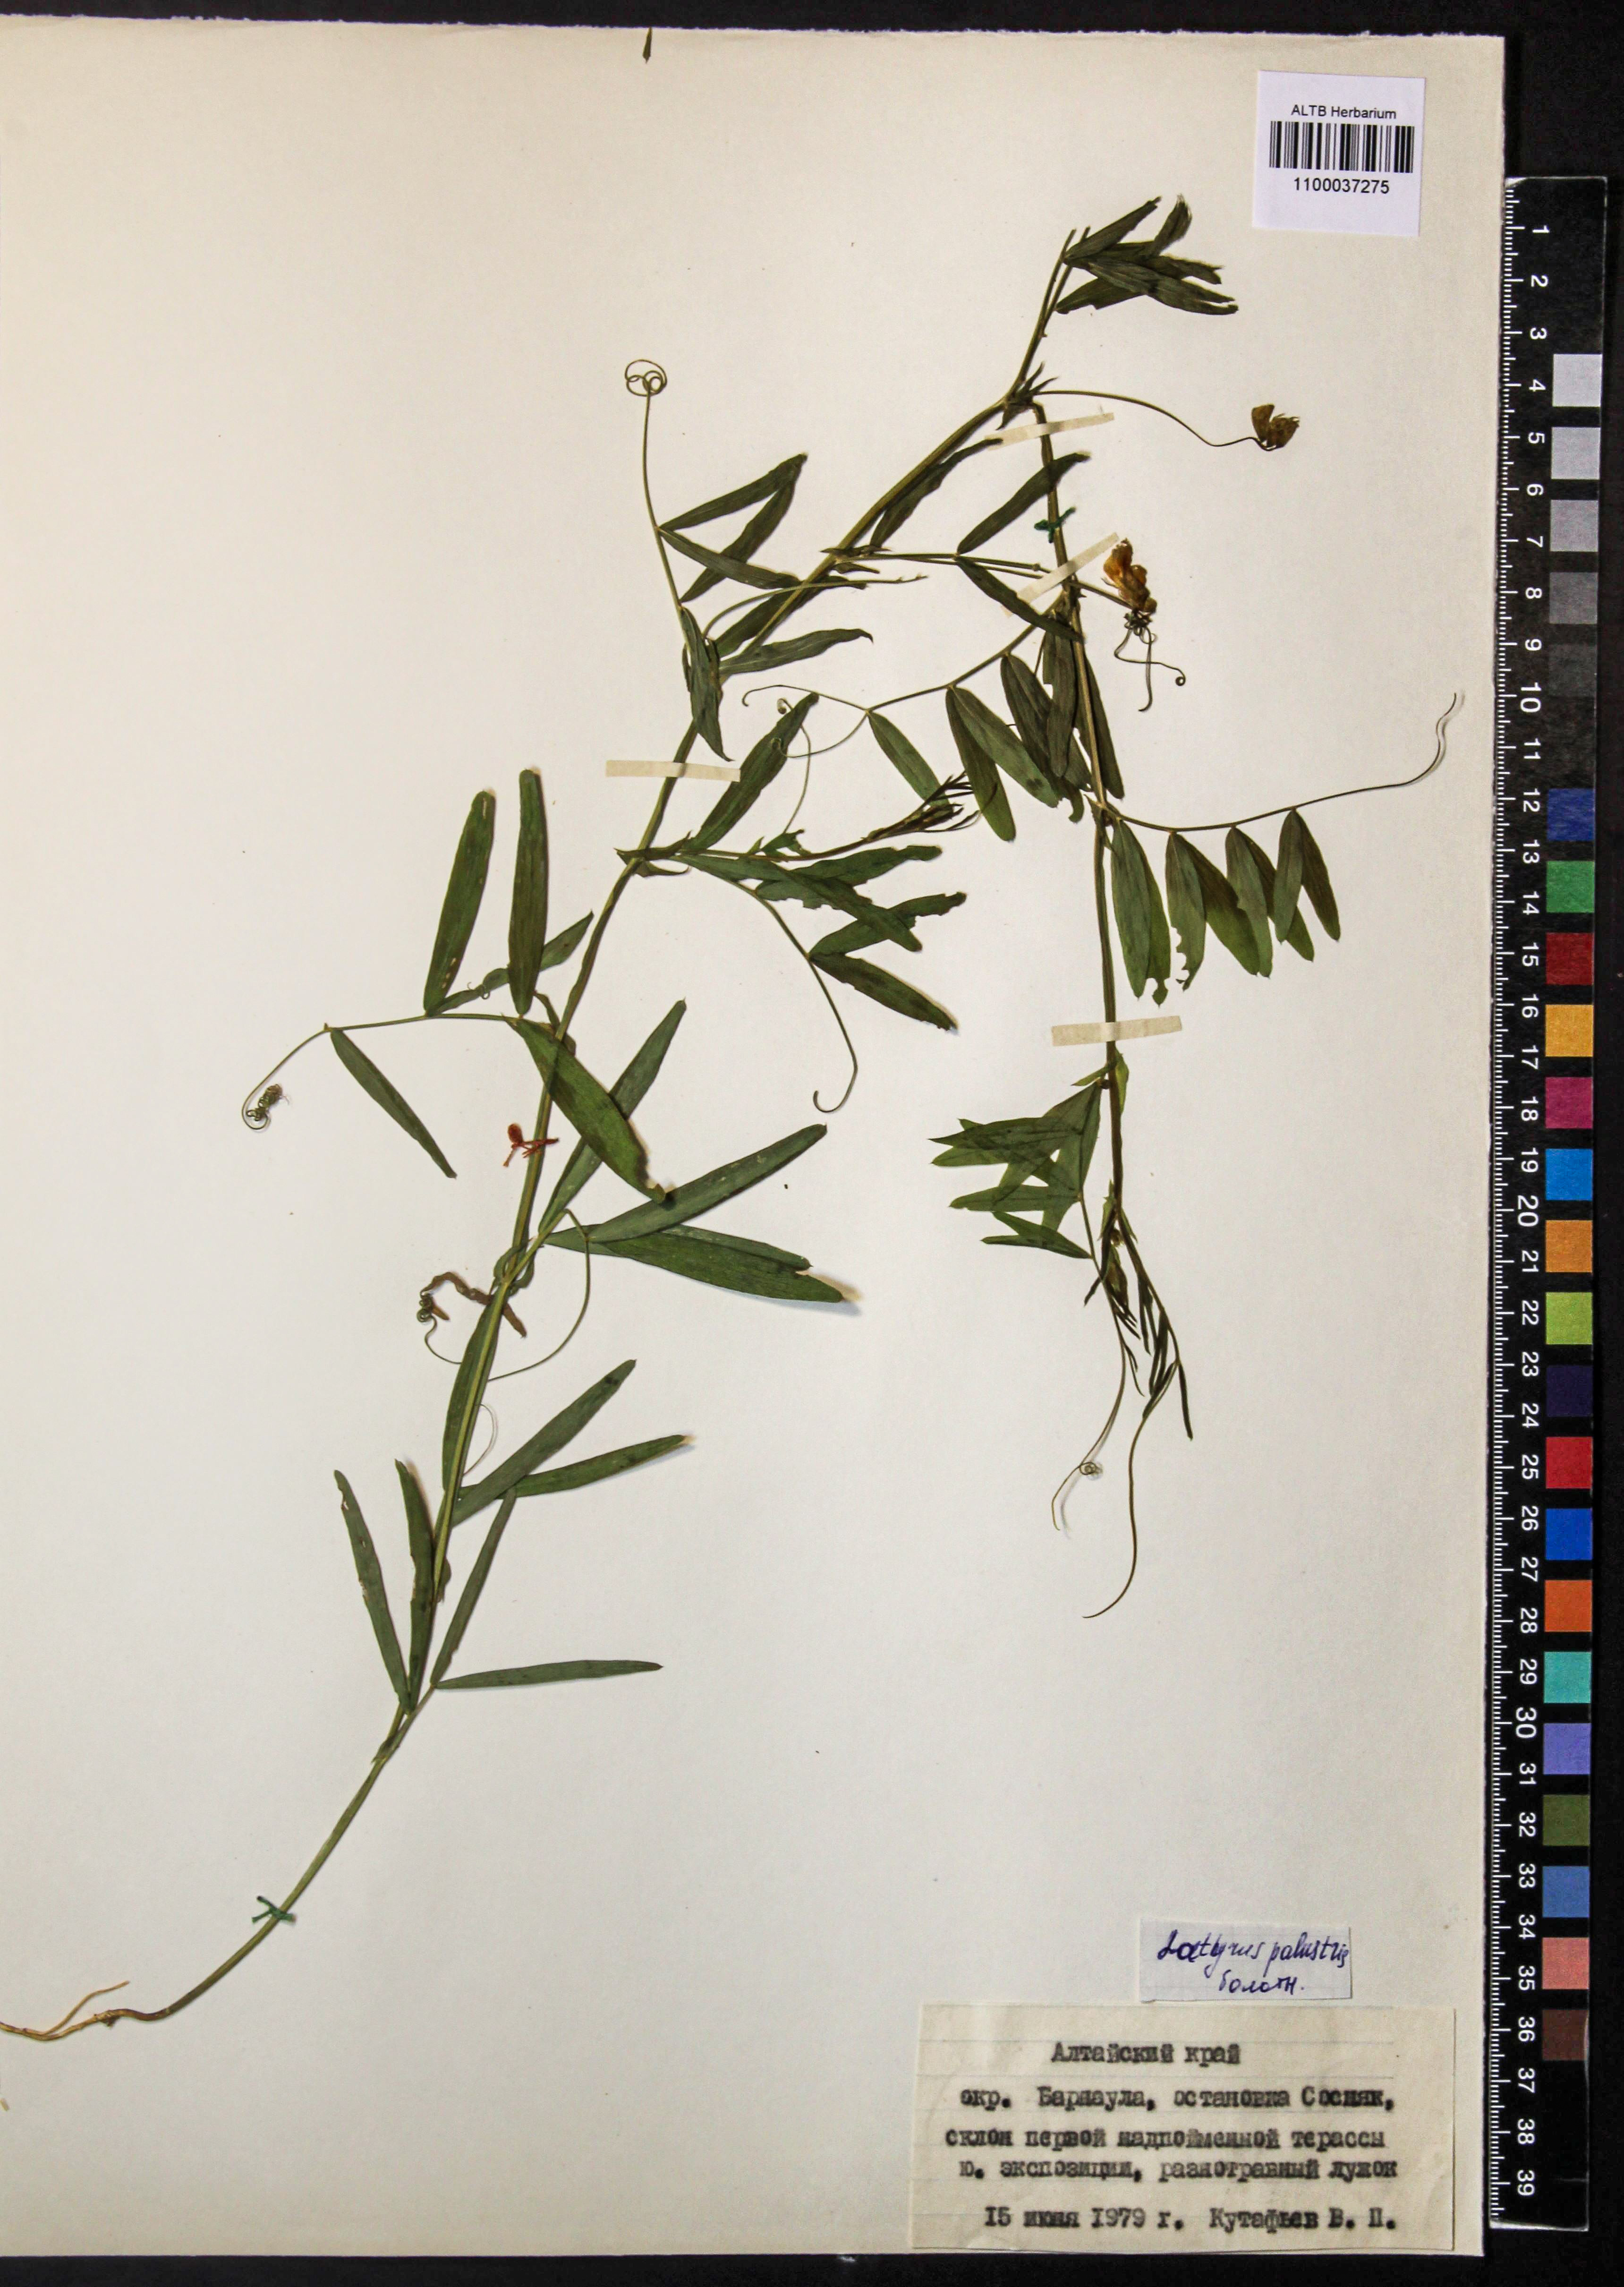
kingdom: Plantae
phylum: Tracheophyta
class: Magnoliopsida
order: Fabales
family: Fabaceae
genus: Lathyrus
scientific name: Lathyrus palustris
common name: Marsh pea
